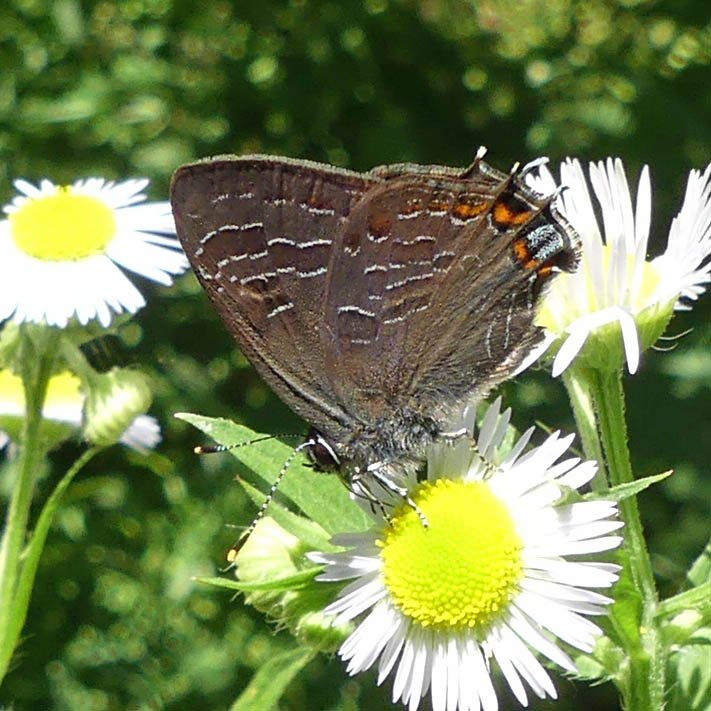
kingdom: Animalia
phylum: Arthropoda
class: Insecta
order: Lepidoptera
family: Lycaenidae
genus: Satyrium
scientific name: Satyrium liparops
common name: Striped Hairstreak
